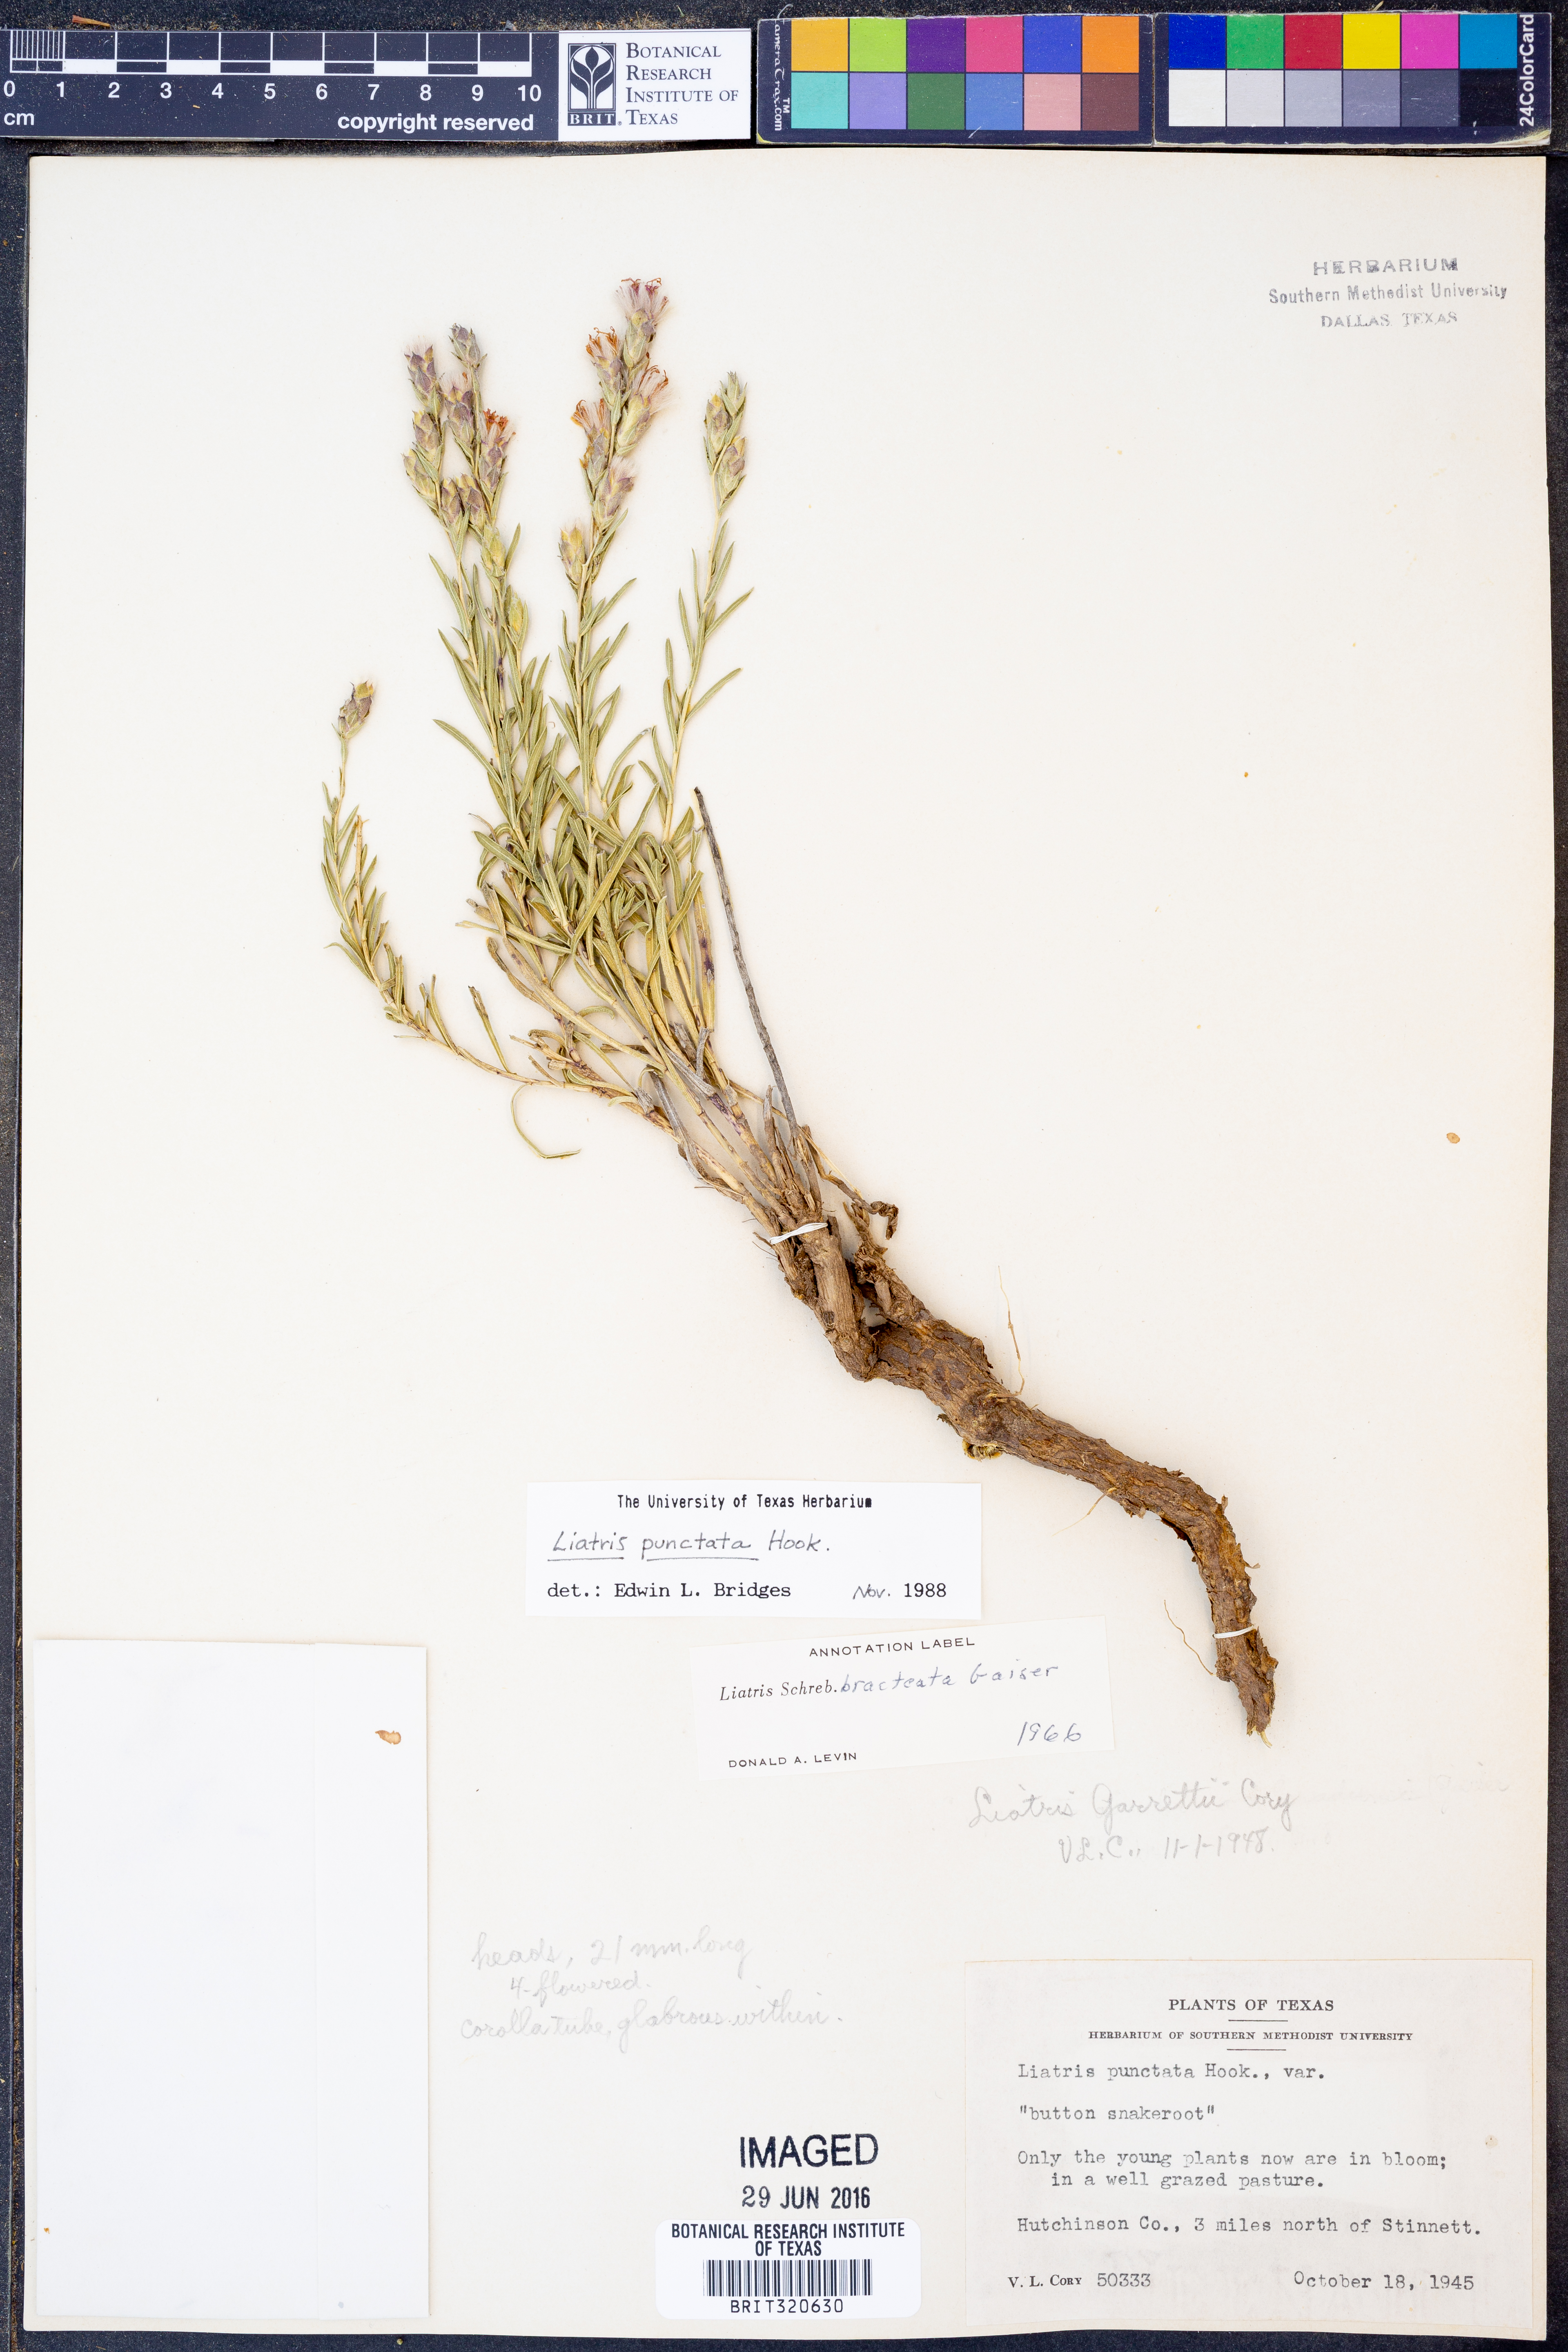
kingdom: Plantae
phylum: Tracheophyta
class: Magnoliopsida
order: Asterales
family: Asteraceae
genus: Liatris
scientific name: Liatris punctata
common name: Dotted gayfeather
